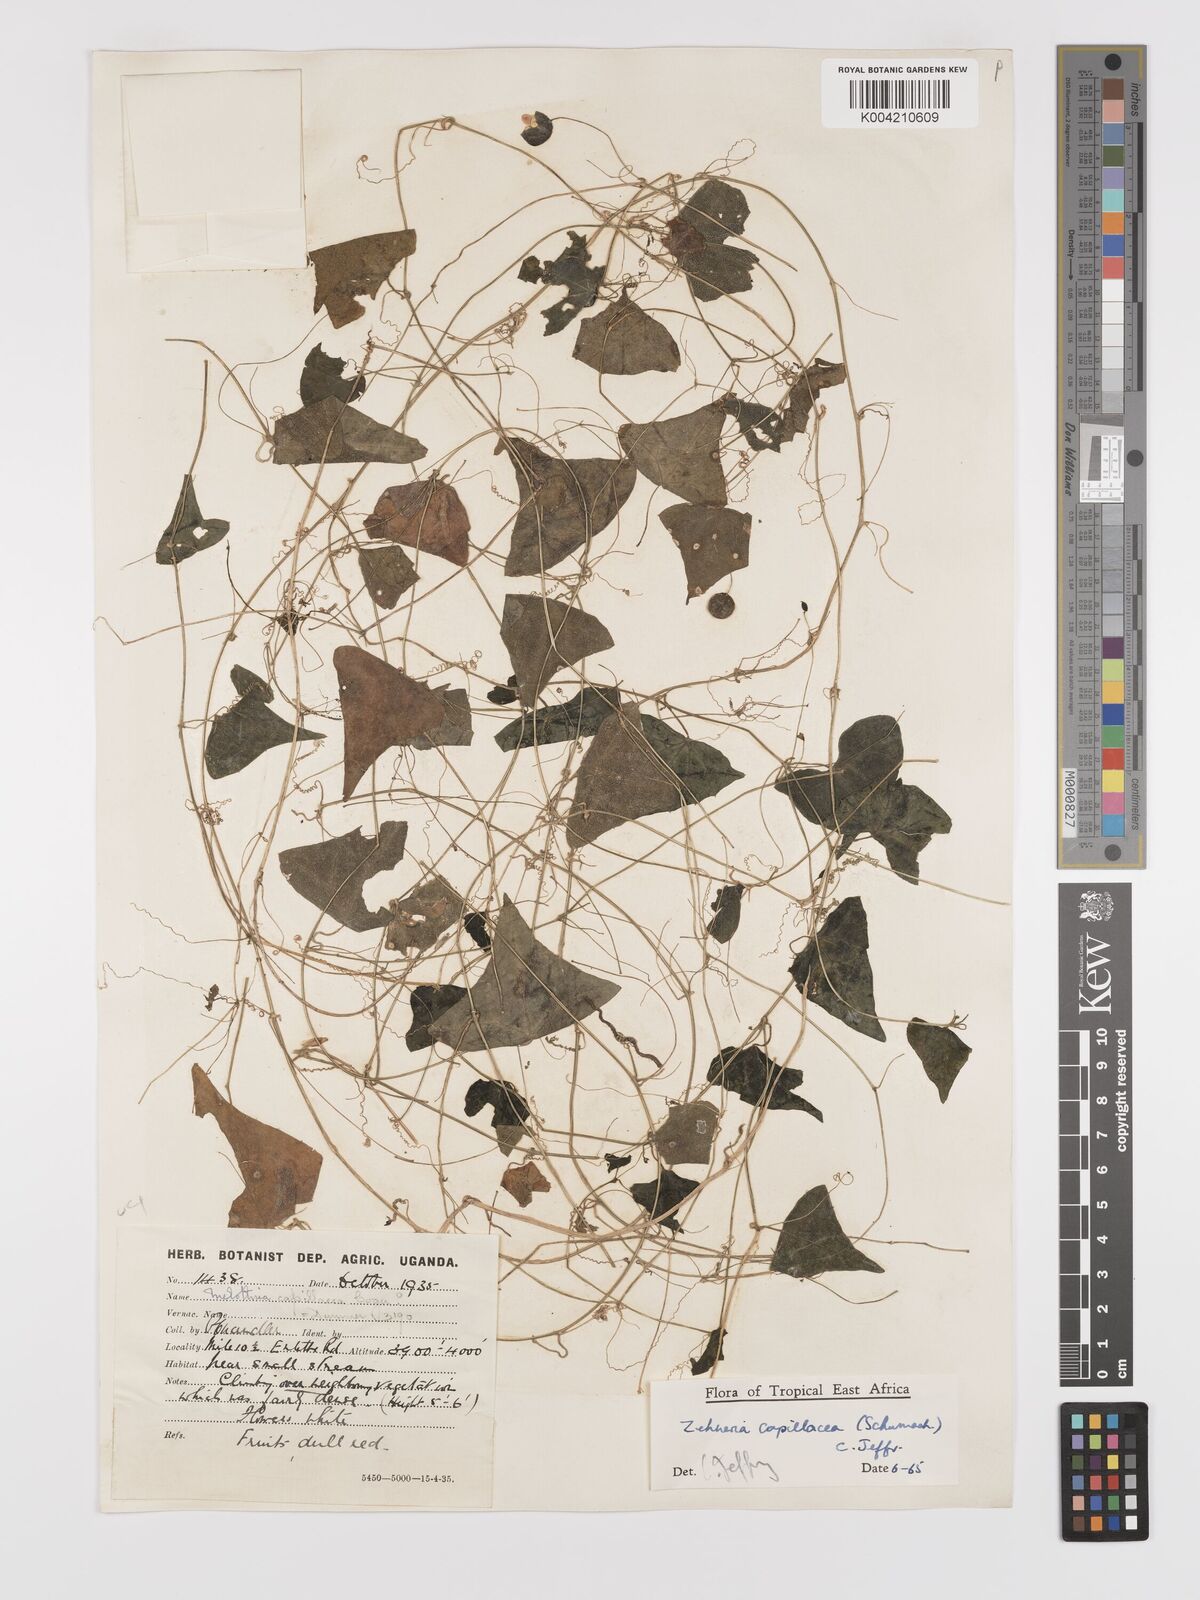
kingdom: Plantae
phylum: Tracheophyta
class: Magnoliopsida
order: Cucurbitales
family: Cucurbitaceae
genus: Zehneria
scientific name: Zehneria capillacea
